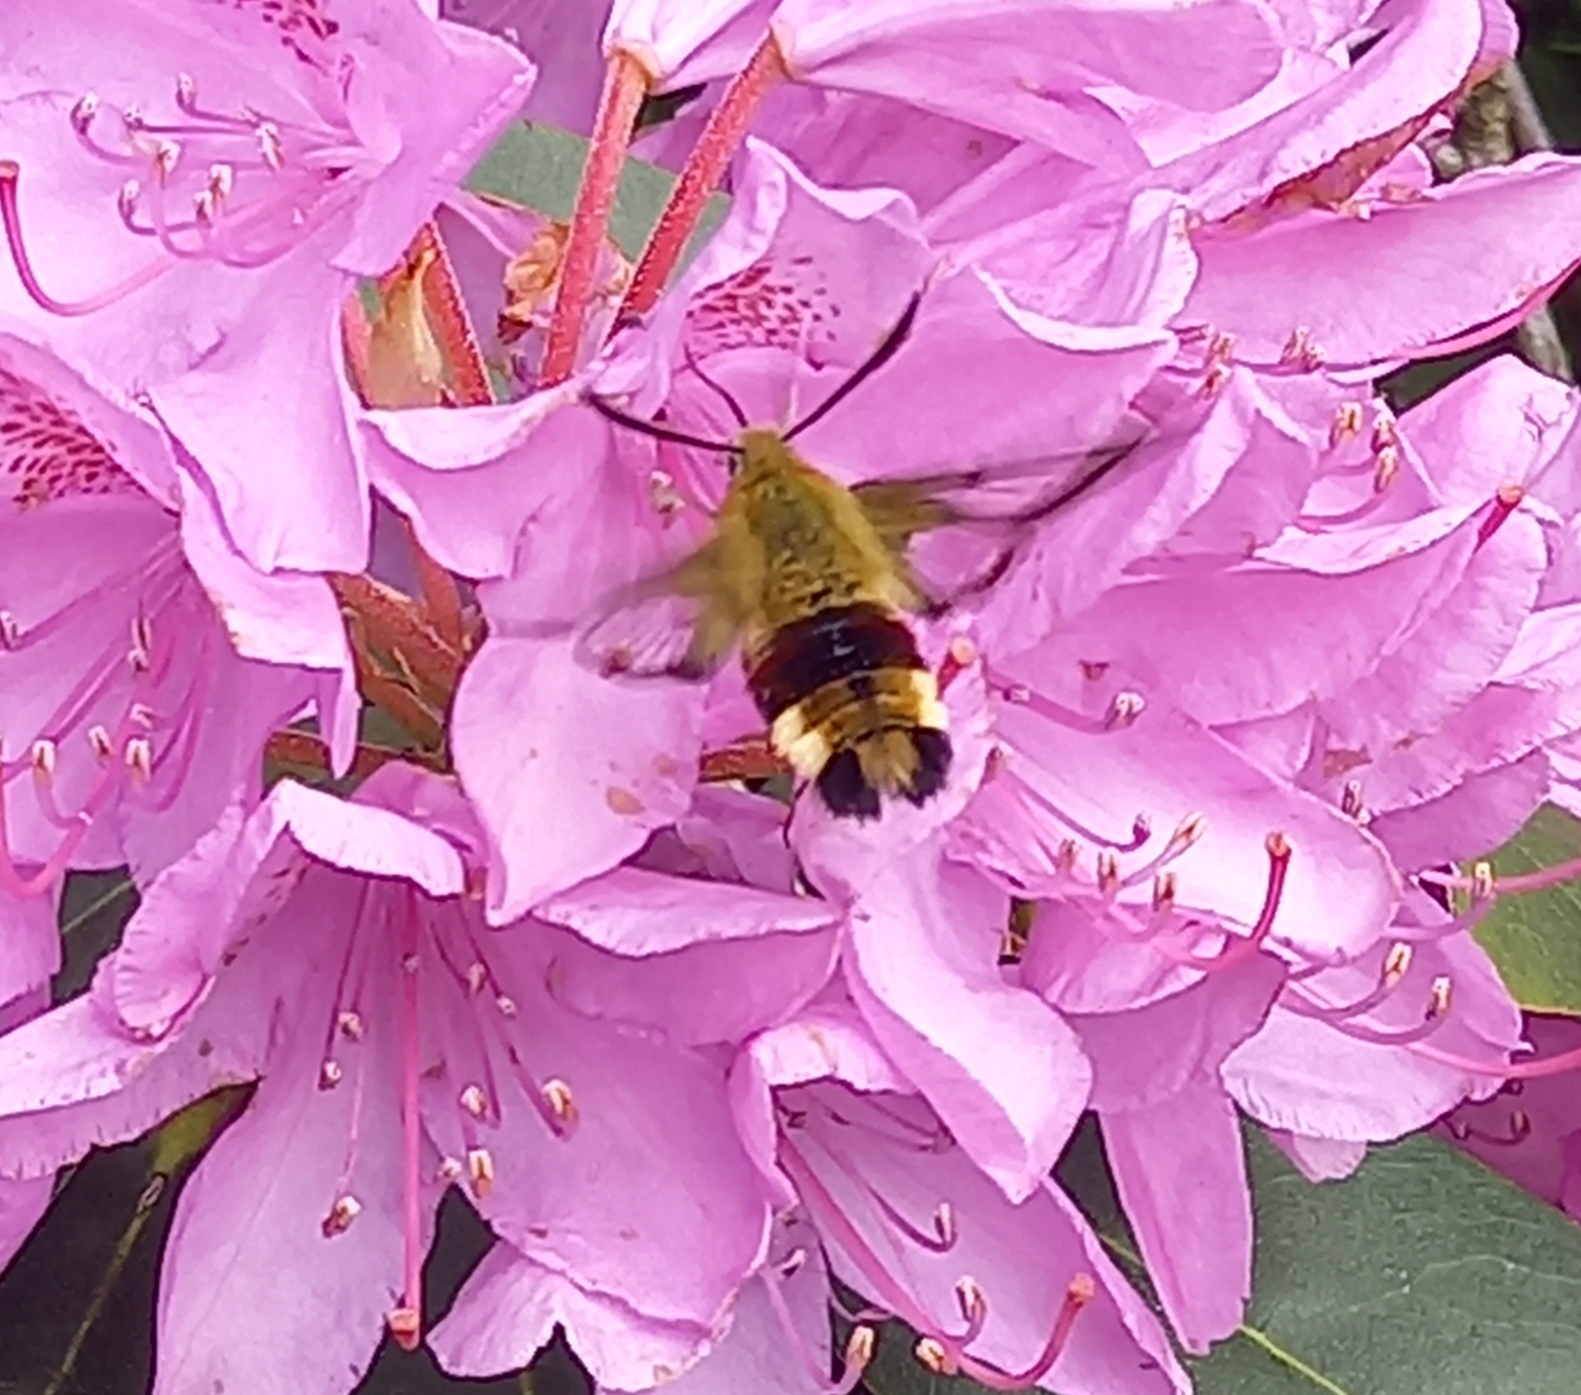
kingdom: Animalia
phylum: Arthropoda
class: Insecta
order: Lepidoptera
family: Sphingidae
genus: Hemaris
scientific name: Hemaris fuciformis
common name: Bredrandet humlebisværmer
